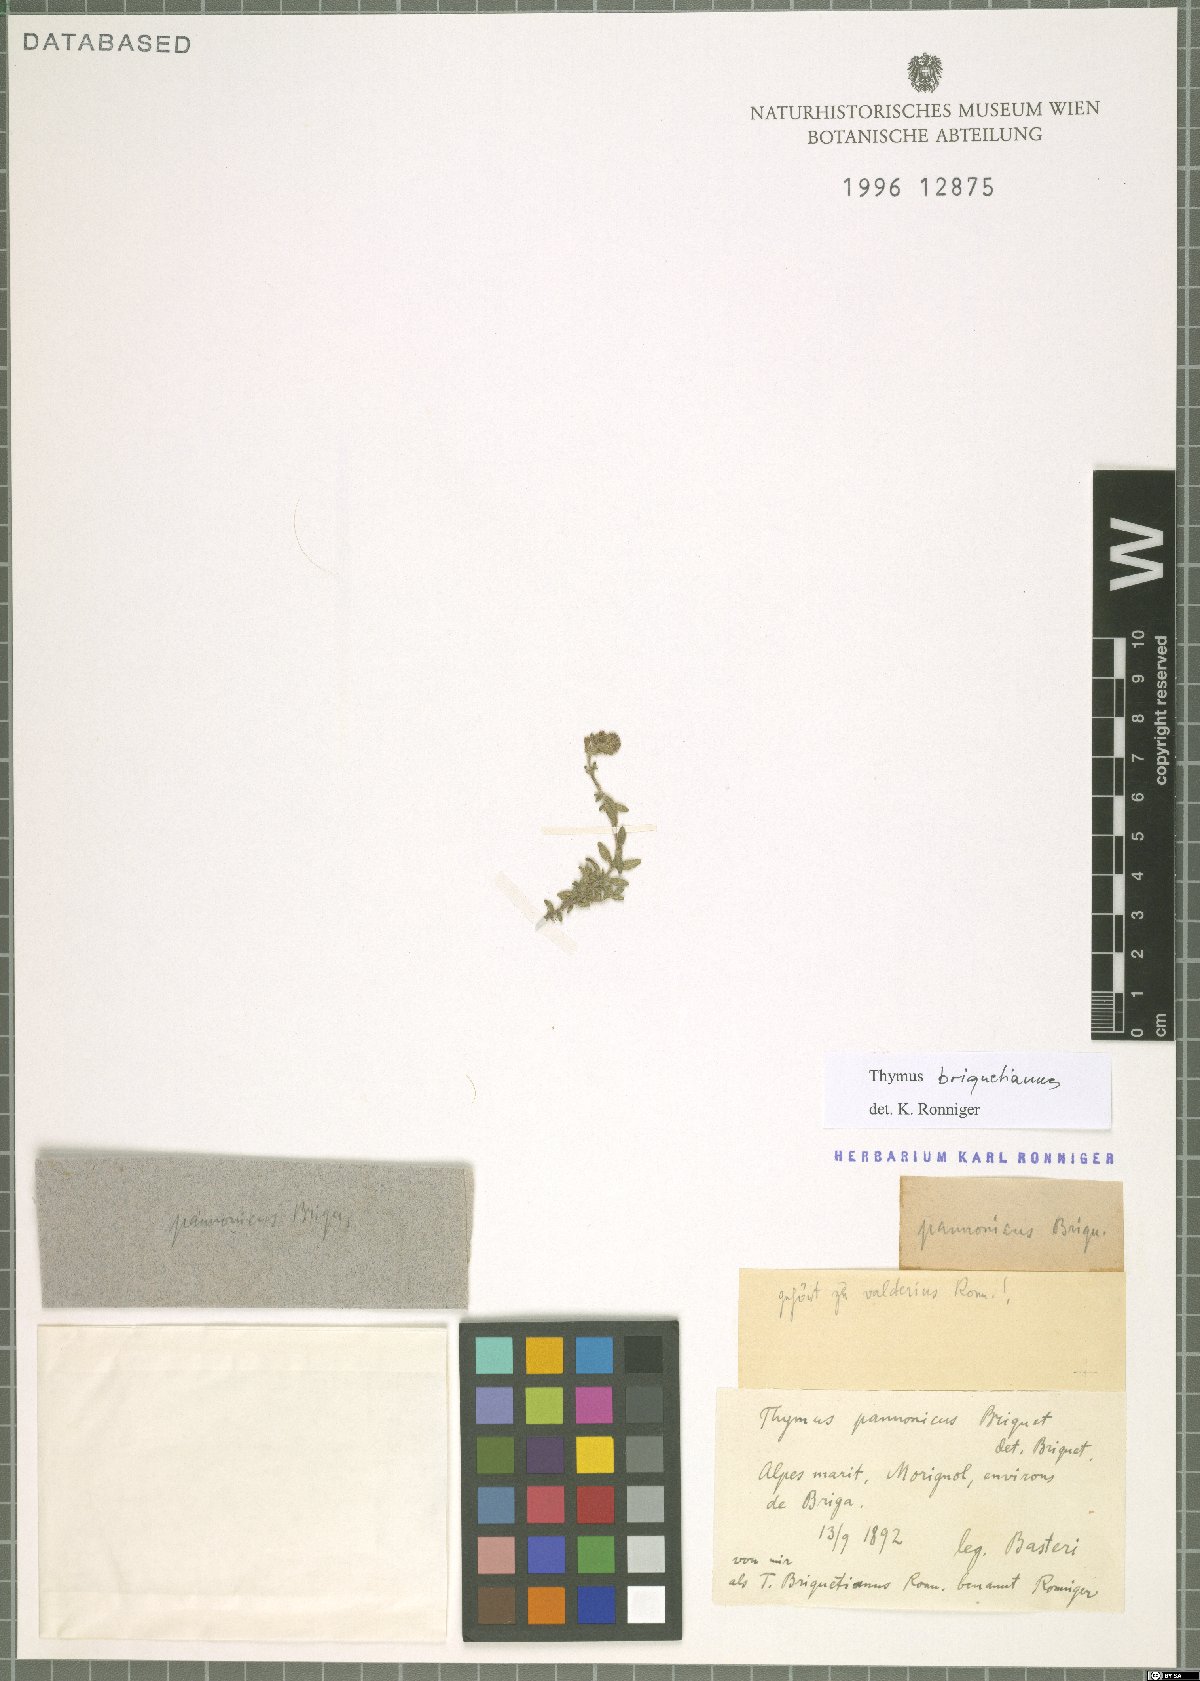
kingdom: Plantae
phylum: Tracheophyta
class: Magnoliopsida
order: Lamiales
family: Lamiaceae
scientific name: Lamiaceae
